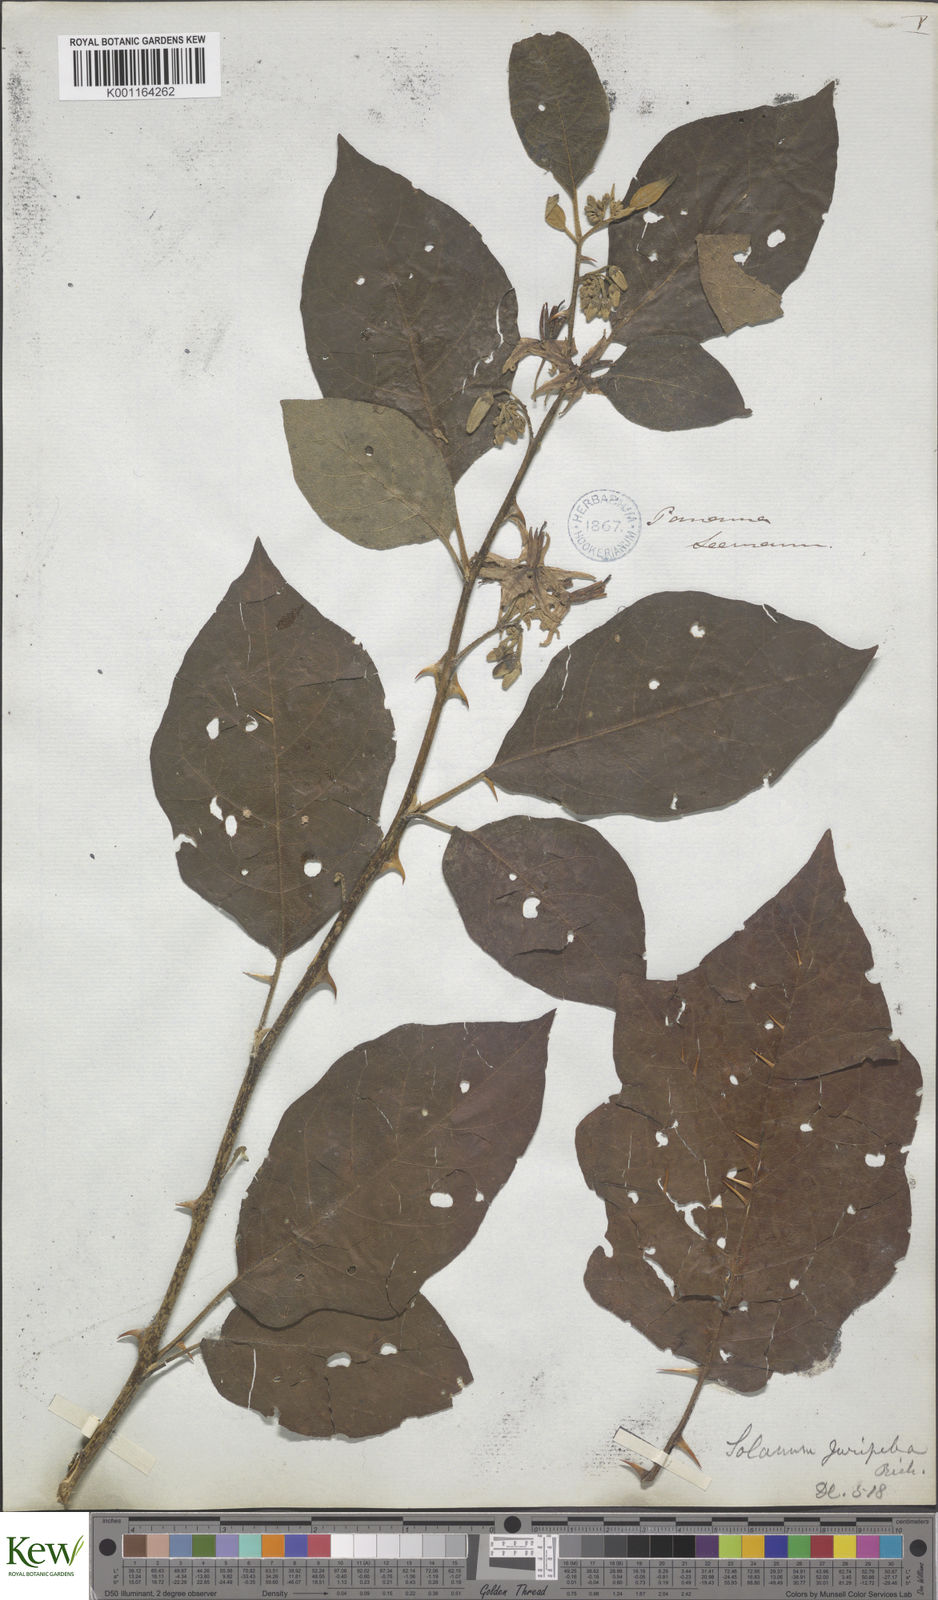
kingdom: Plantae
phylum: Tracheophyta
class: Magnoliopsida
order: Solanales
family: Solanaceae
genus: Solanum
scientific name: Solanum subinerme
